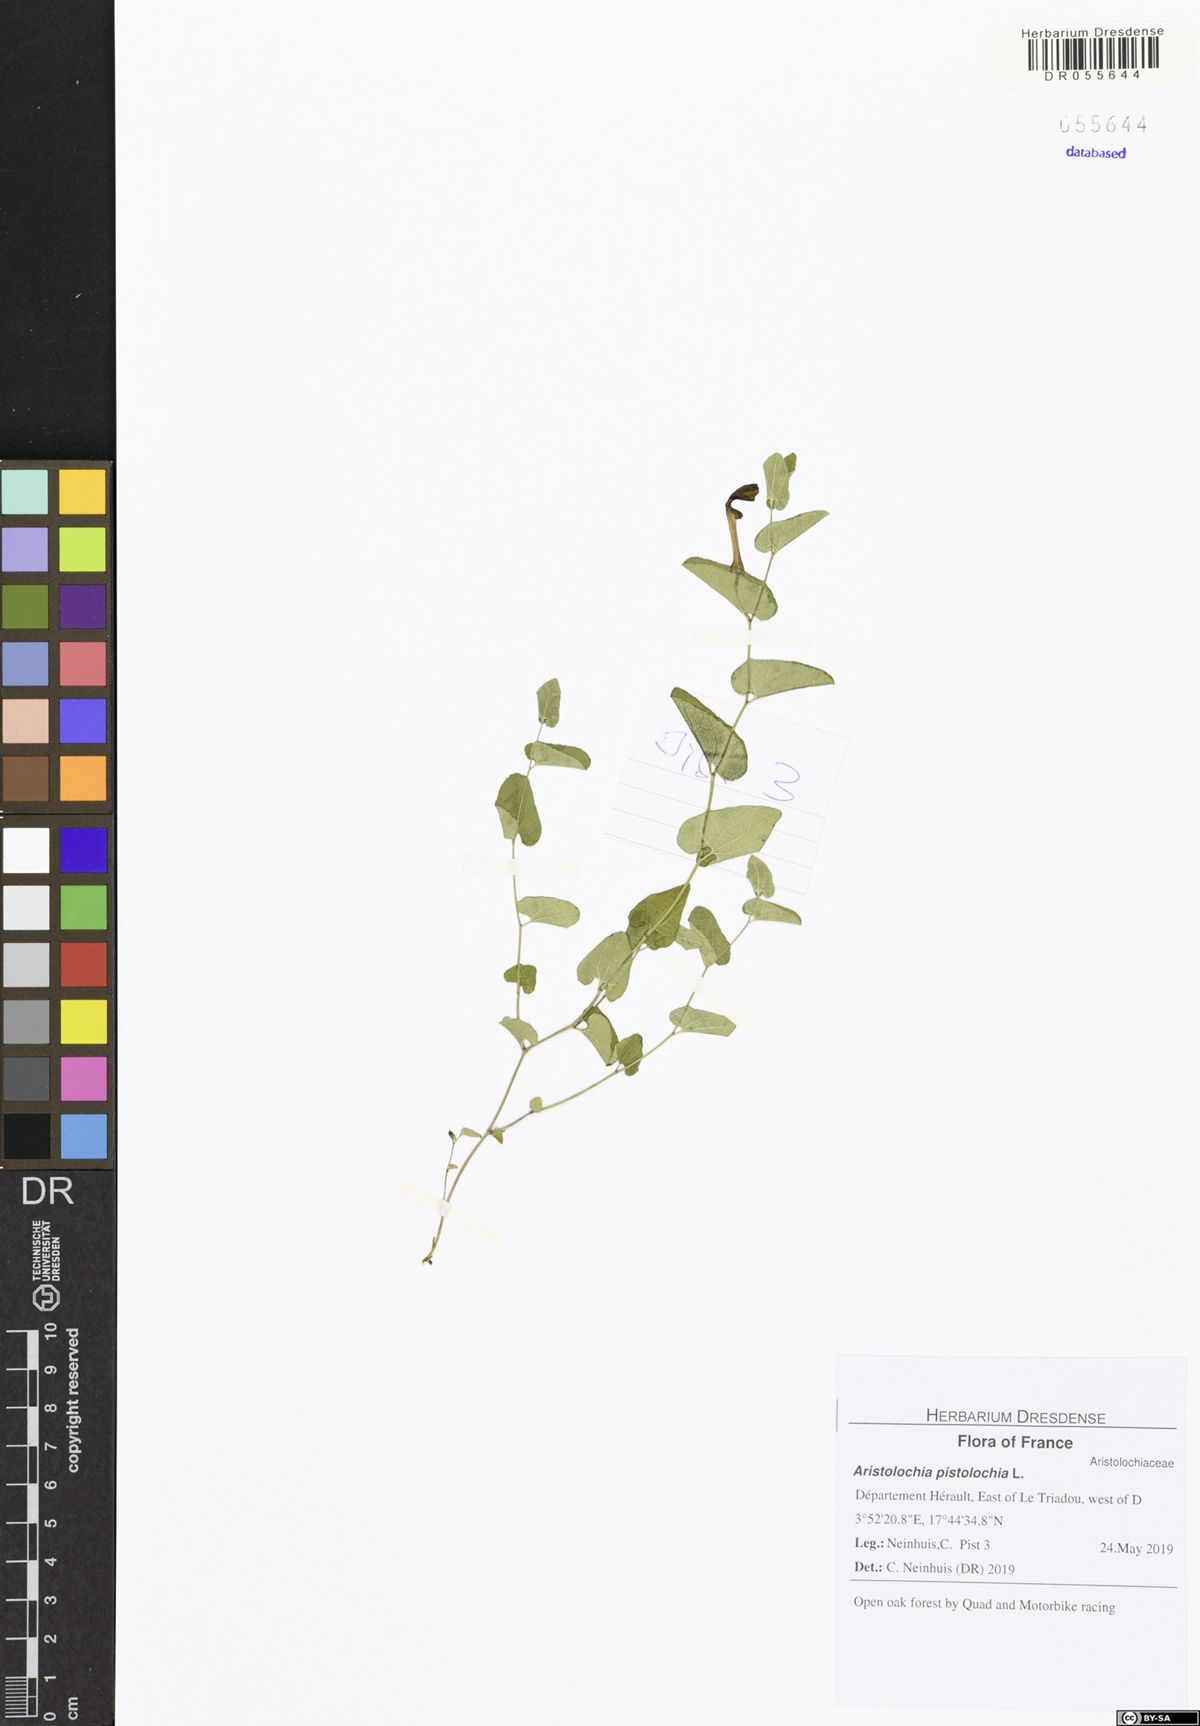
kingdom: Plantae
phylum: Tracheophyta
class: Magnoliopsida
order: Piperales
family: Aristolochiaceae
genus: Aristolochia
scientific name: Aristolochia pistolochia
